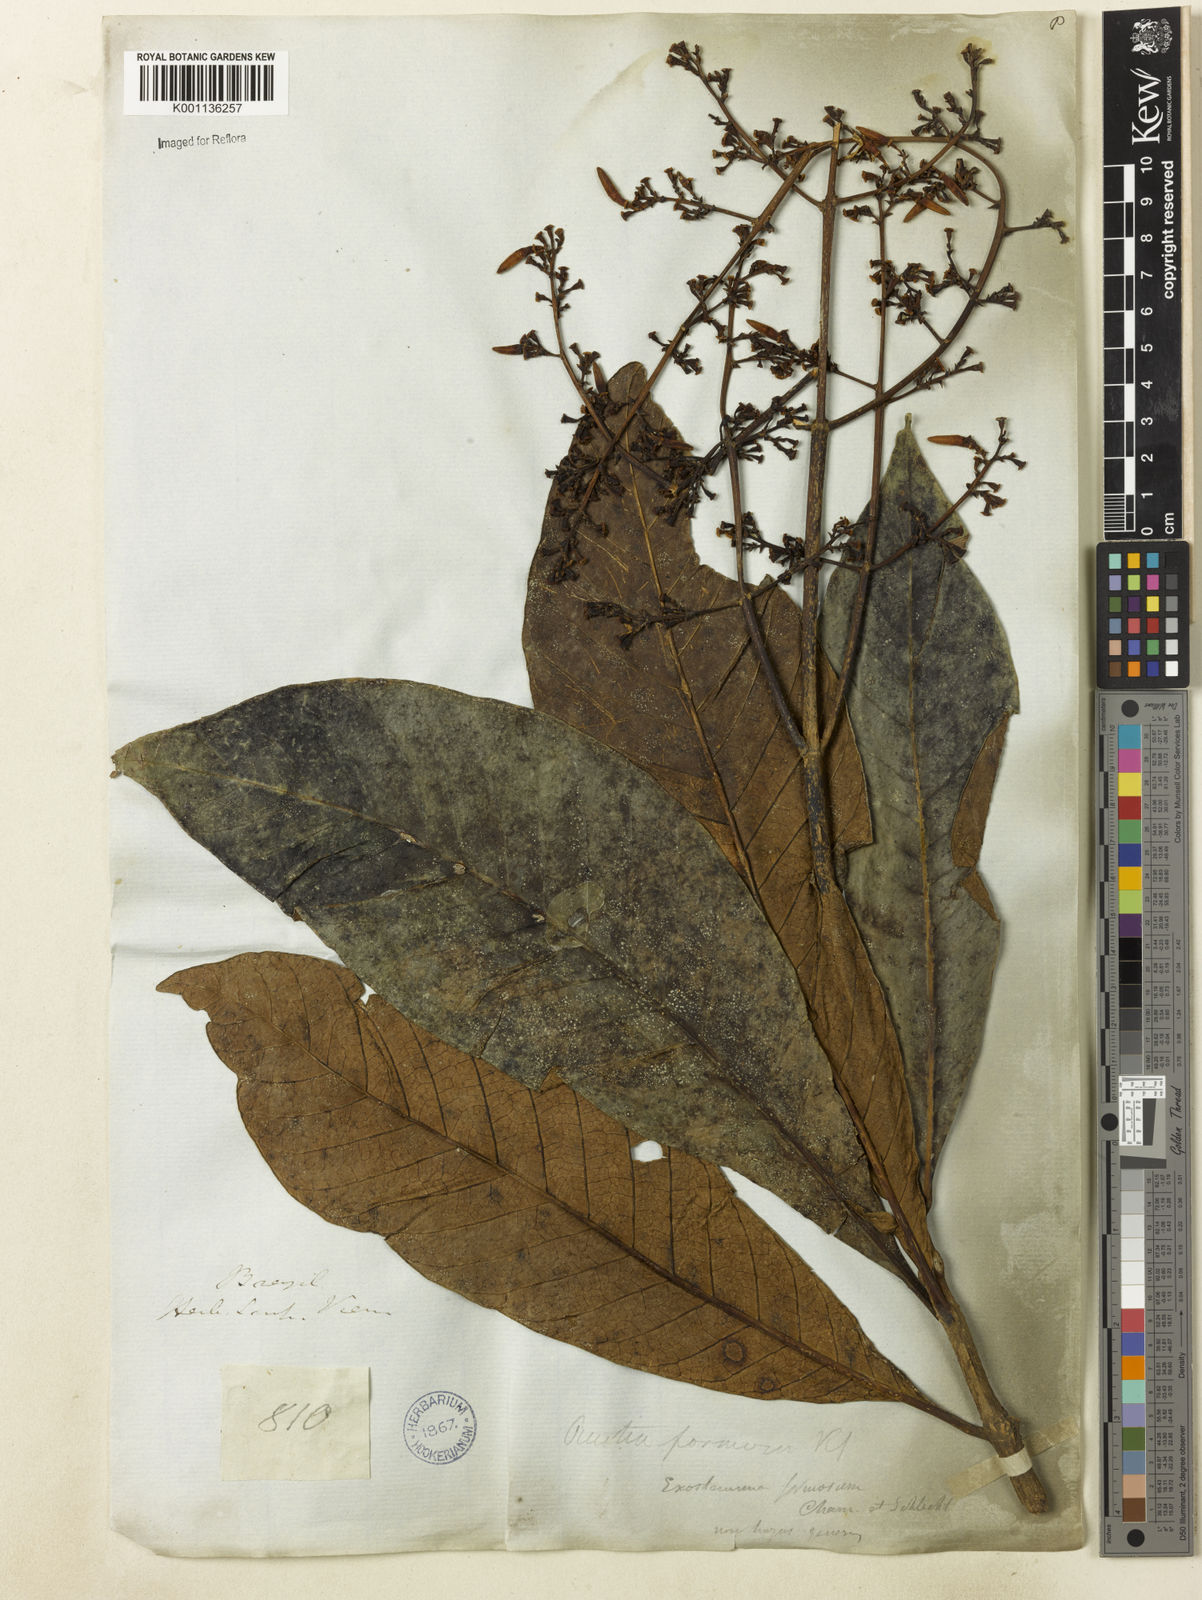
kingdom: Plantae
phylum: Tracheophyta
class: Magnoliopsida
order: Gentianales
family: Rubiaceae
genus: Rustia
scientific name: Rustia formosa
